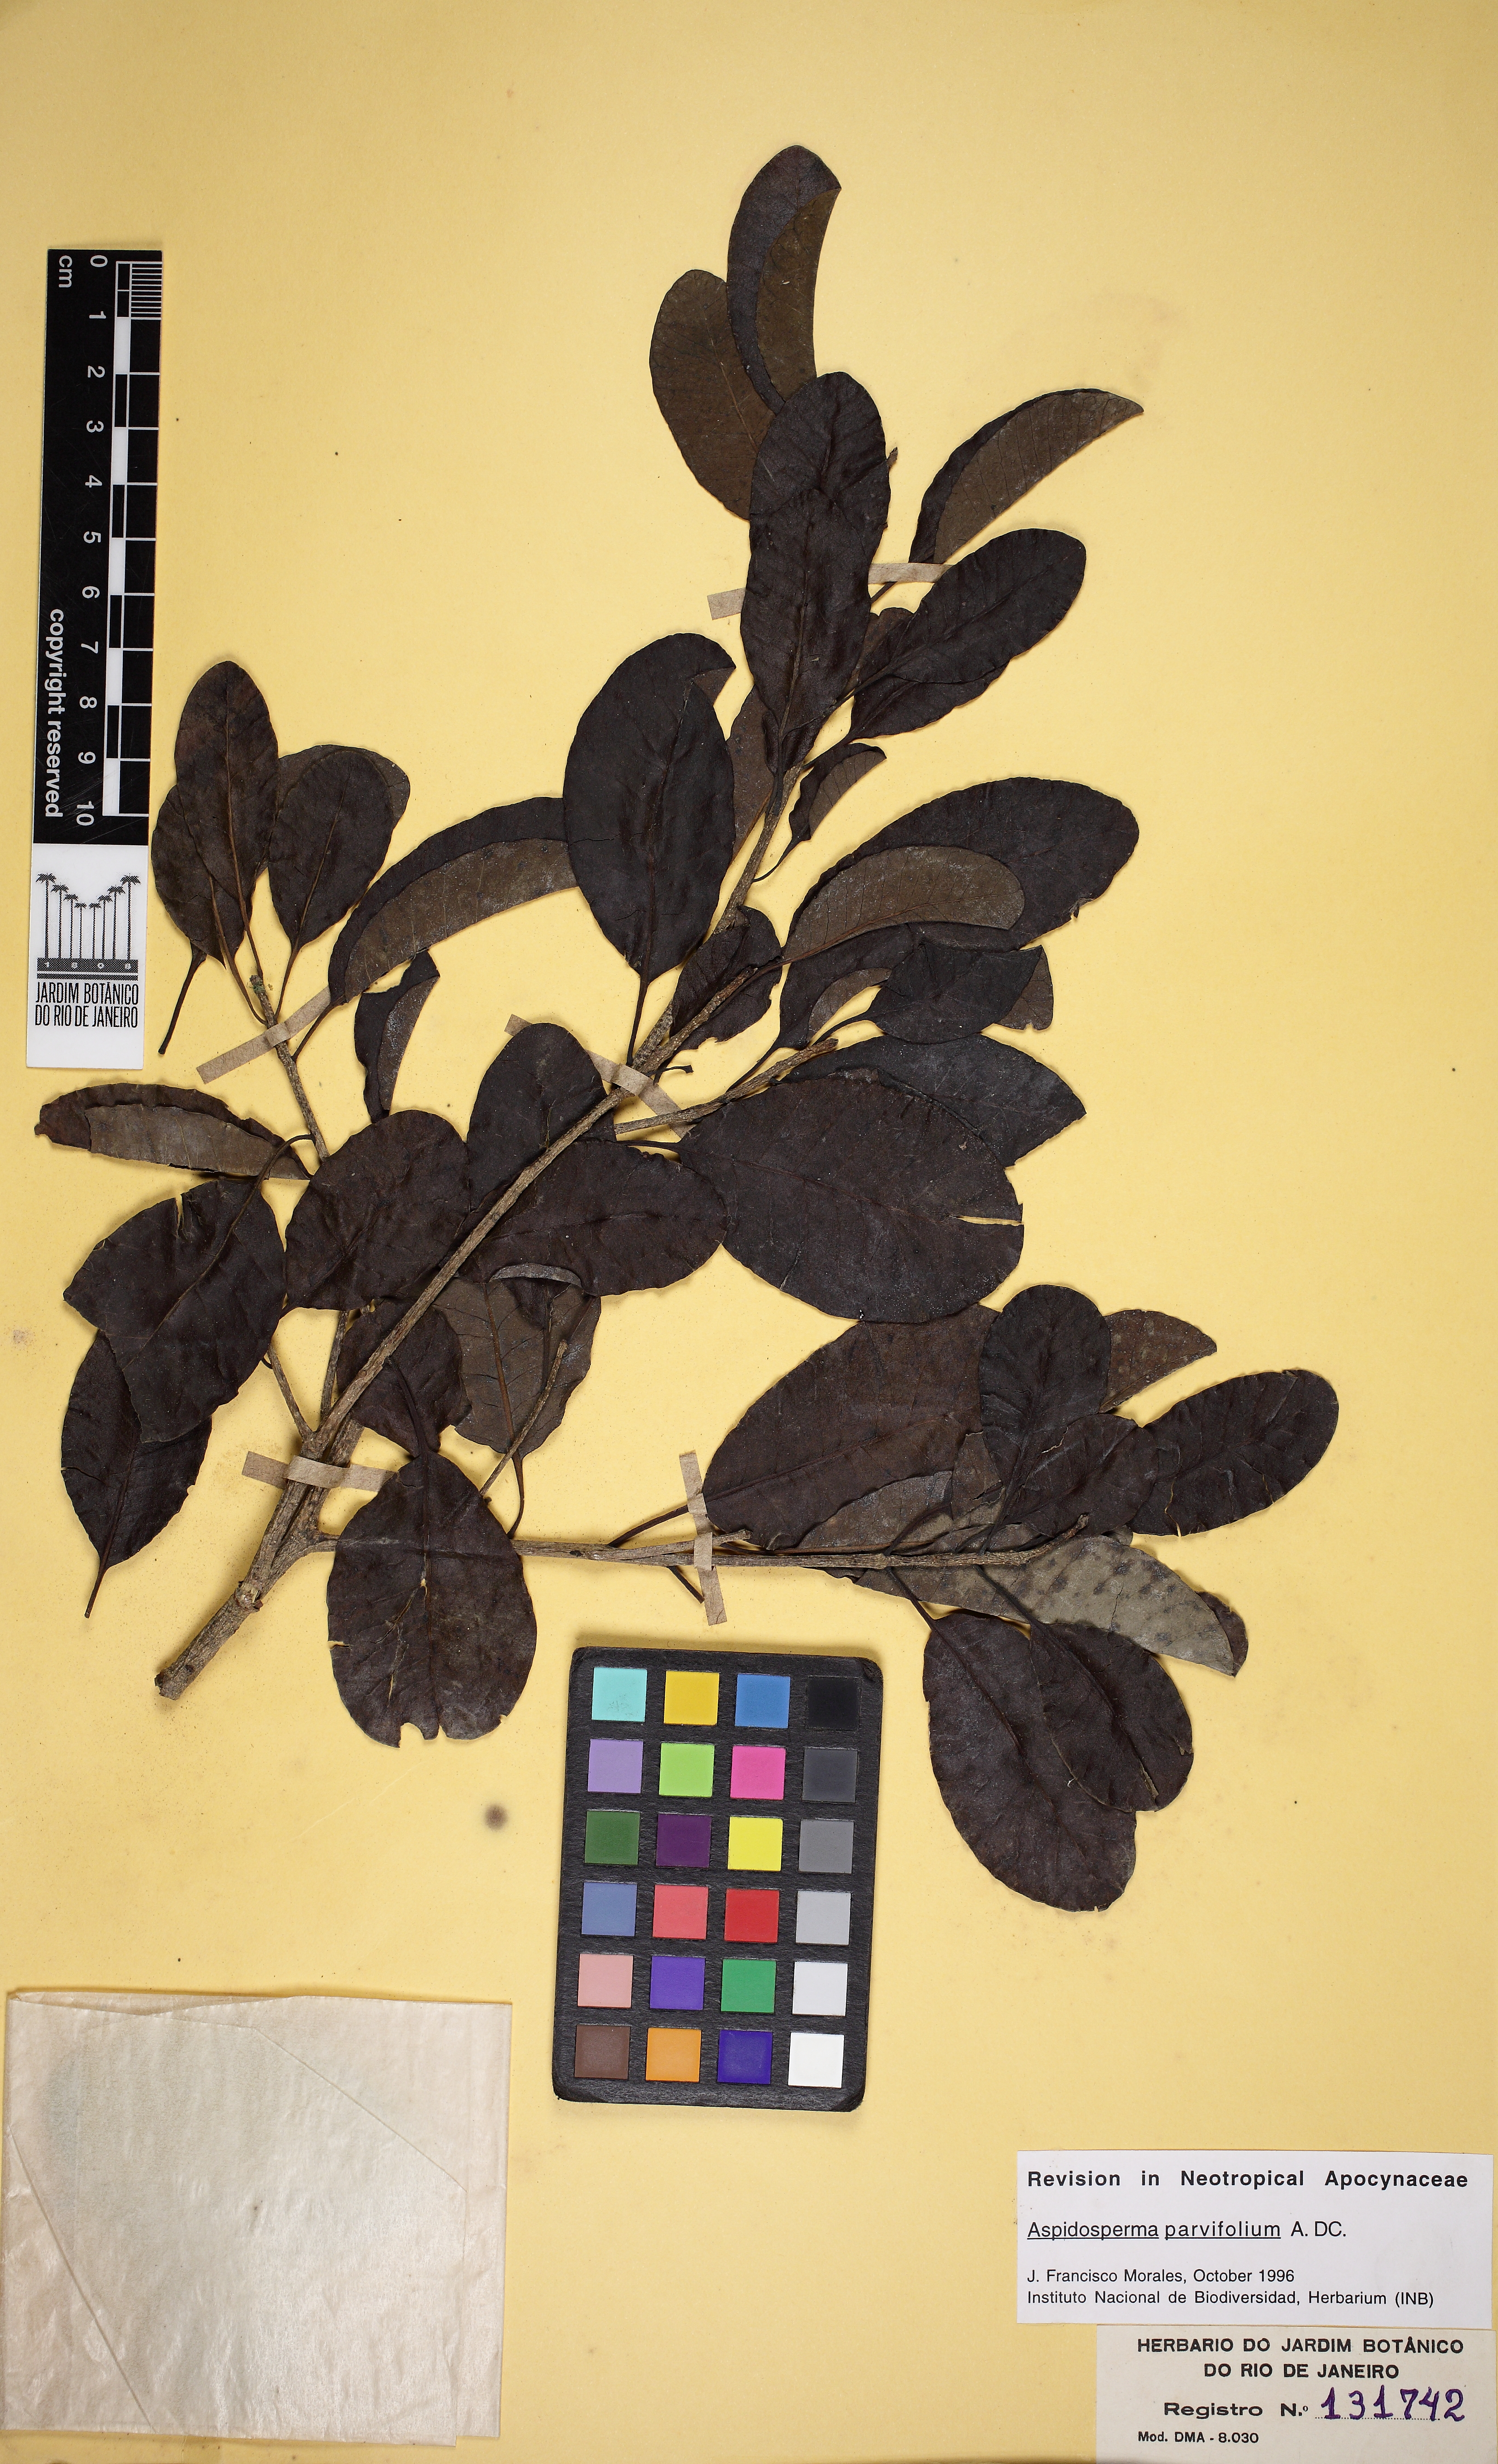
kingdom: Plantae
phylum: Tracheophyta
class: Magnoliopsida
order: Gentianales
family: Apocynaceae
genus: Aspidosperma
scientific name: Aspidosperma pyricollum
